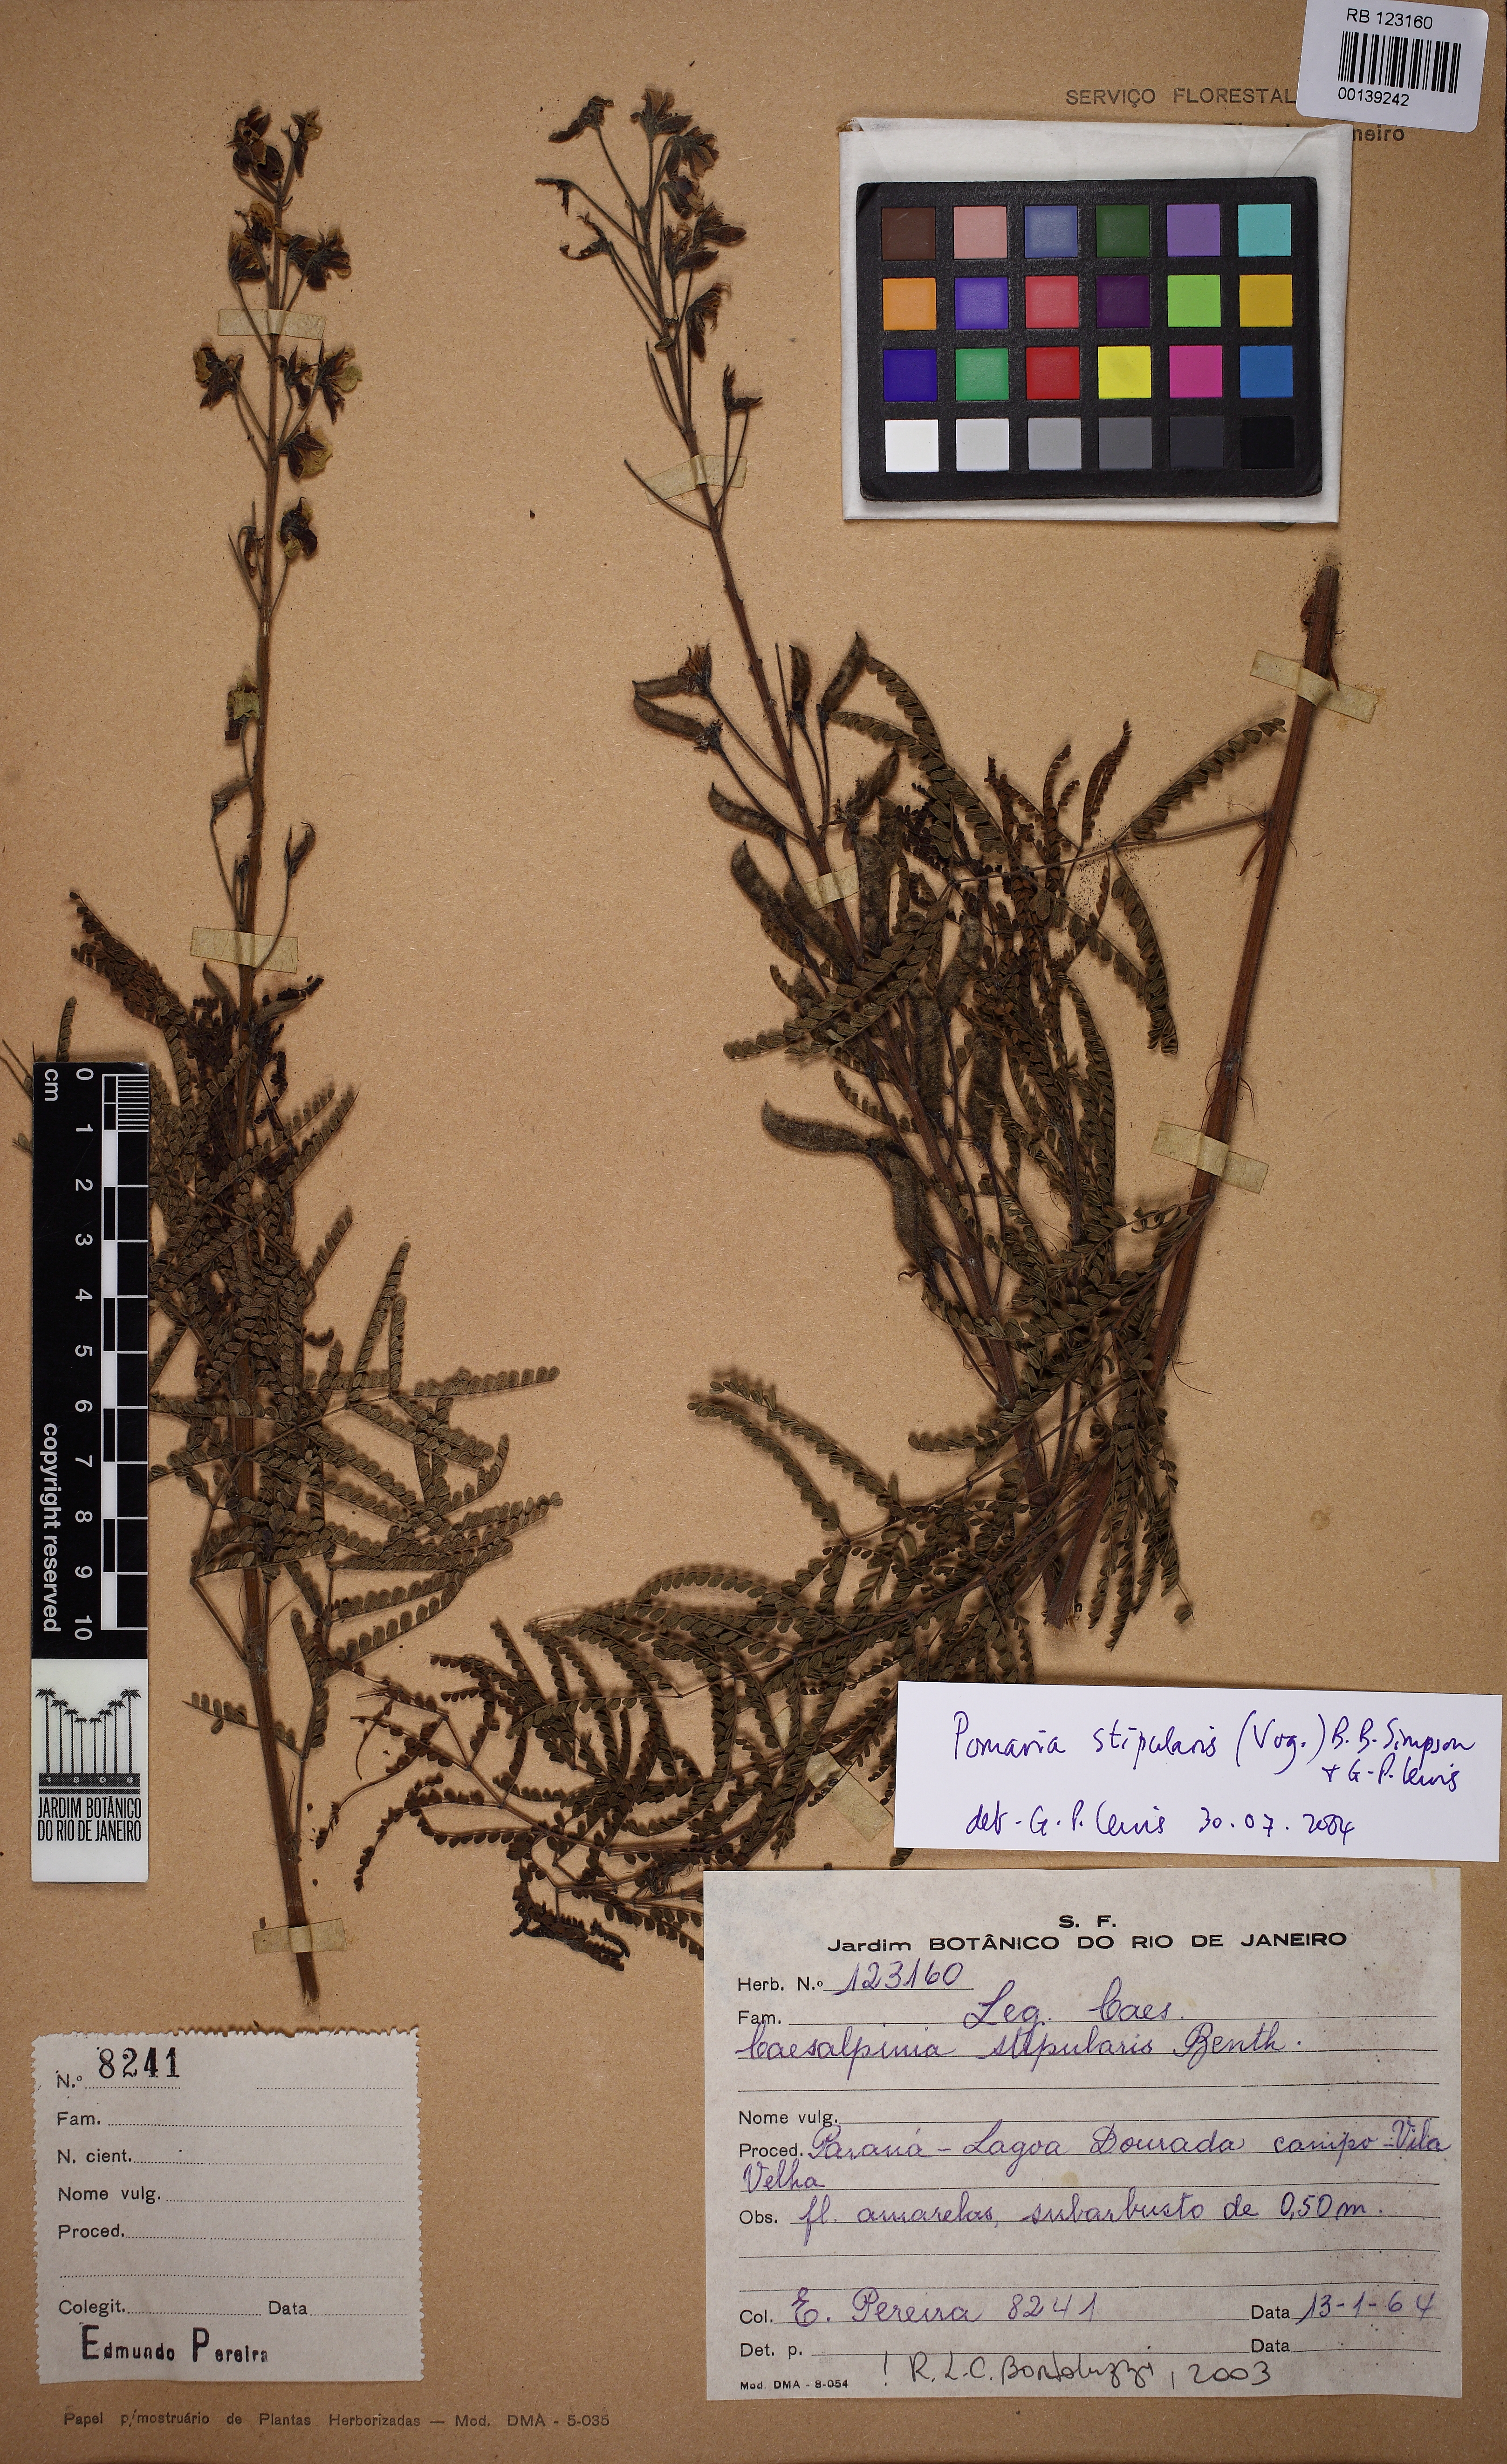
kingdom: Plantae
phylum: Tracheophyta
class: Magnoliopsida
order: Fabales
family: Fabaceae
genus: Pomaria
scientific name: Pomaria stipularis
